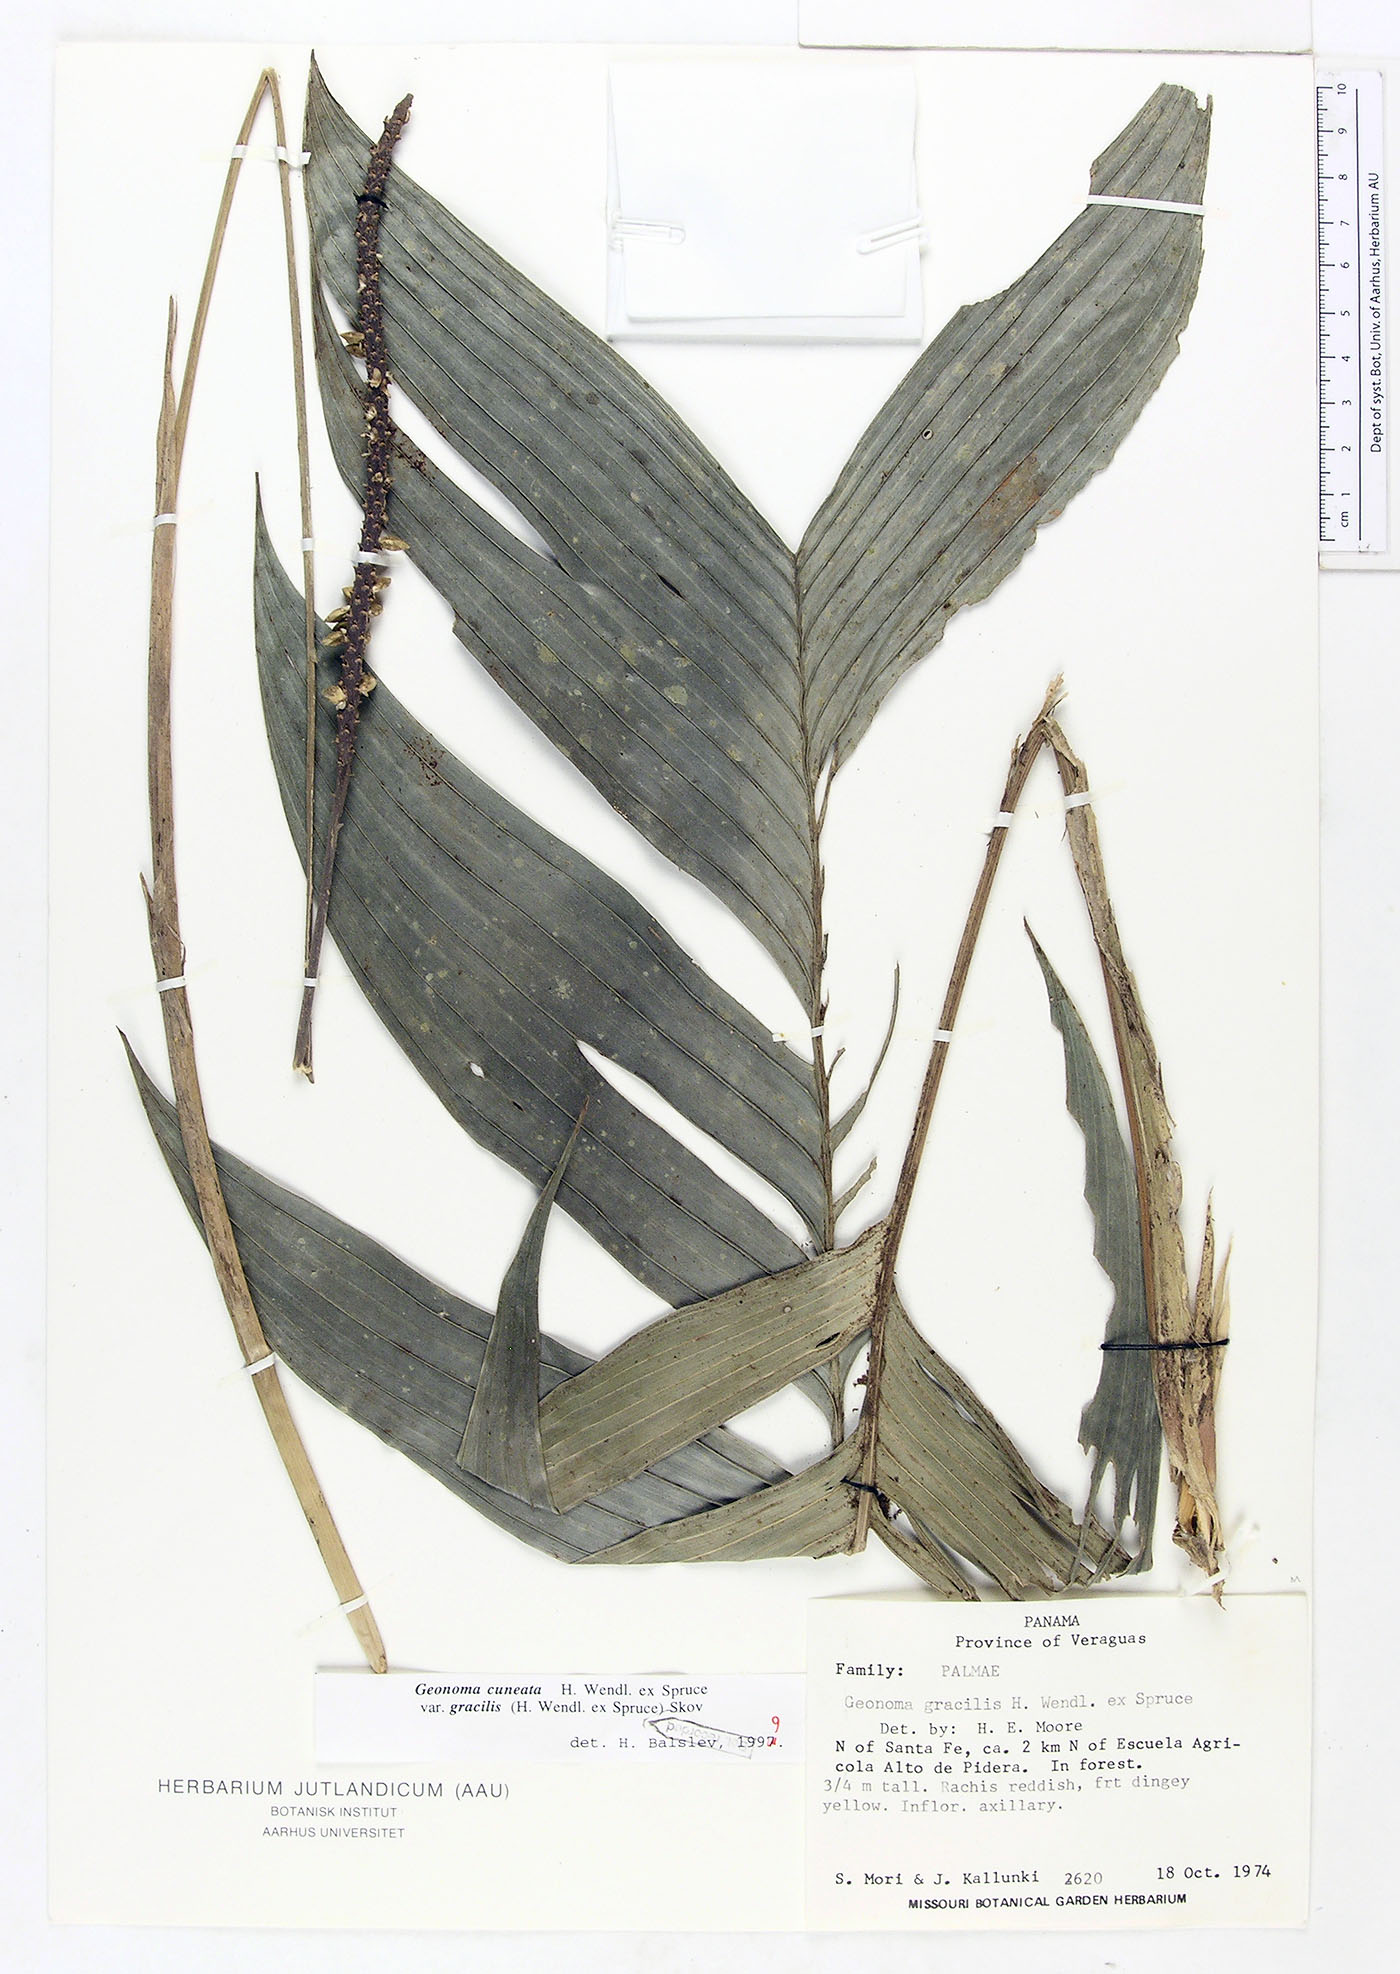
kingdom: Plantae
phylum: Tracheophyta
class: Liliopsida
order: Arecales
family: Arecaceae
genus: Geonoma
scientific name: Geonoma cuneata
